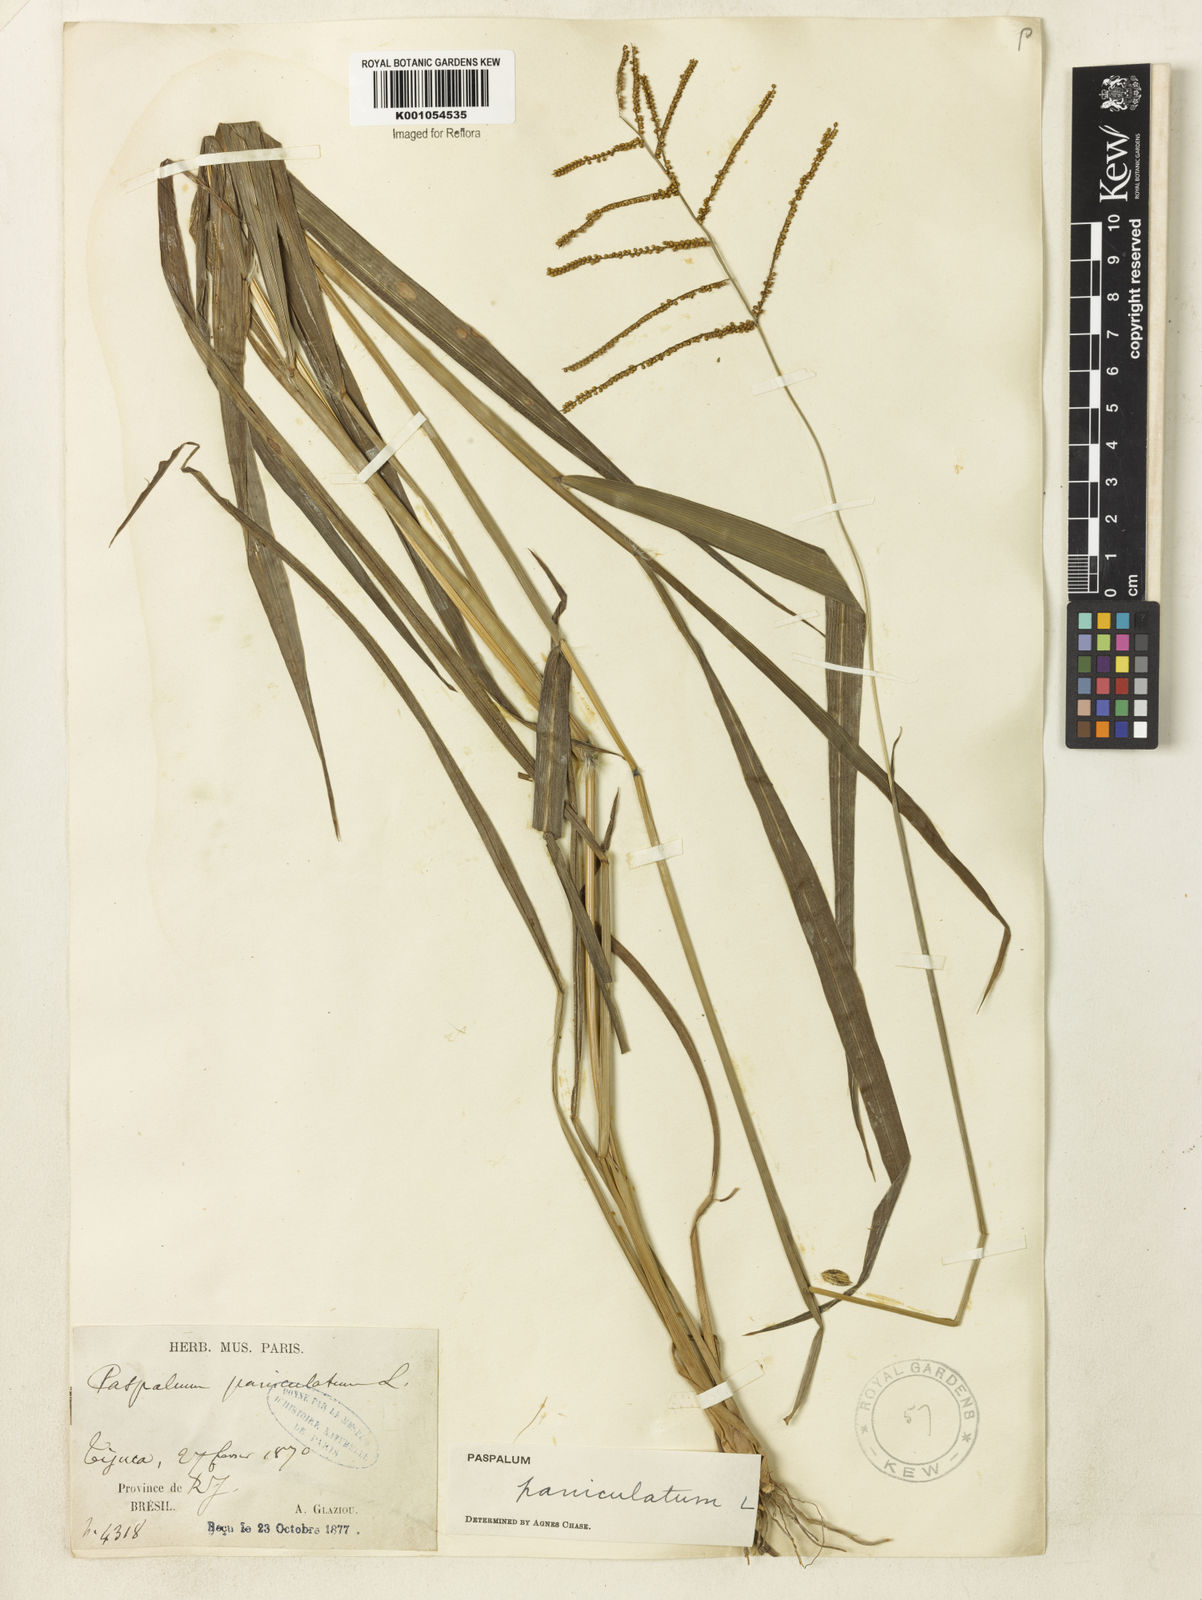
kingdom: Plantae
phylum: Tracheophyta
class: Liliopsida
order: Poales
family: Poaceae
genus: Paspalum
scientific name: Paspalum paniculatum
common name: Arrocillo
